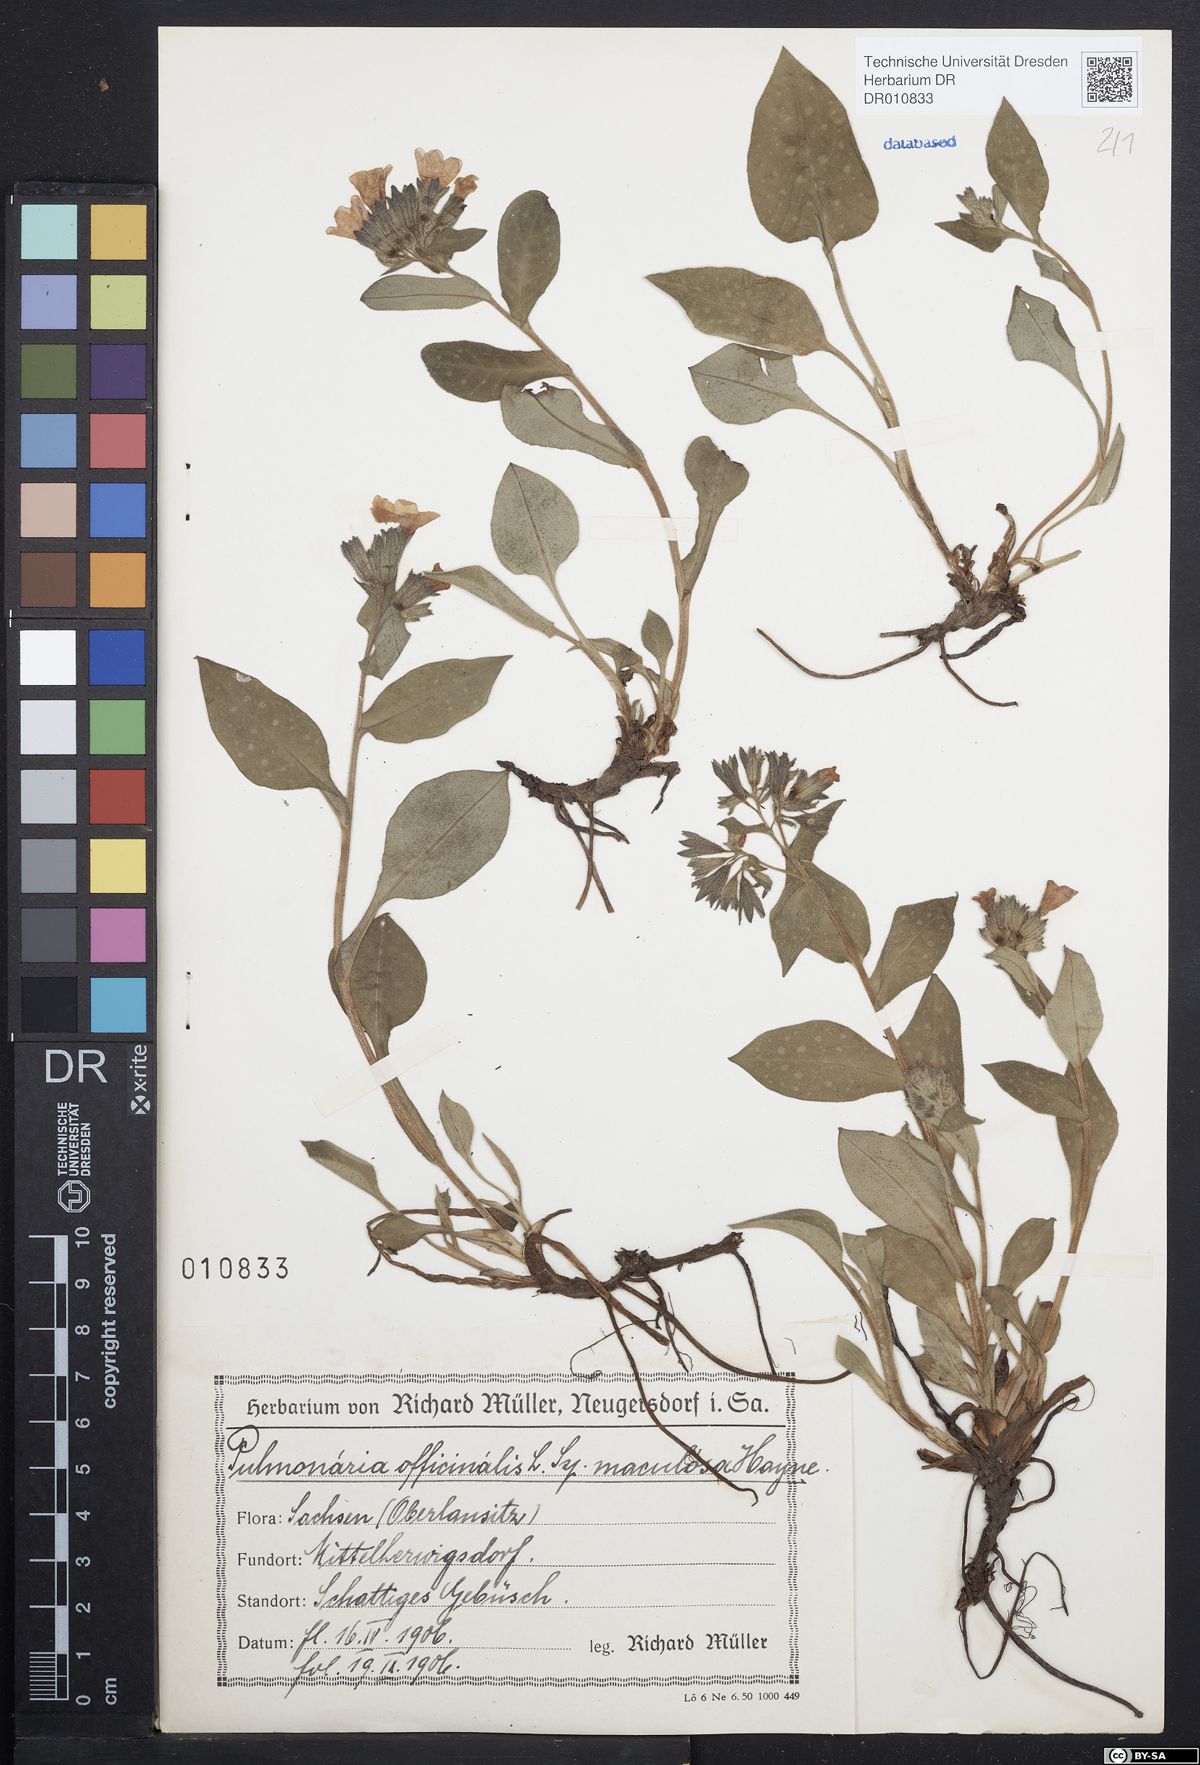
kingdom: Plantae
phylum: Tracheophyta
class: Magnoliopsida
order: Boraginales
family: Boraginaceae
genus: Pulmonaria
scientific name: Pulmonaria officinalis
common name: Lungwort
